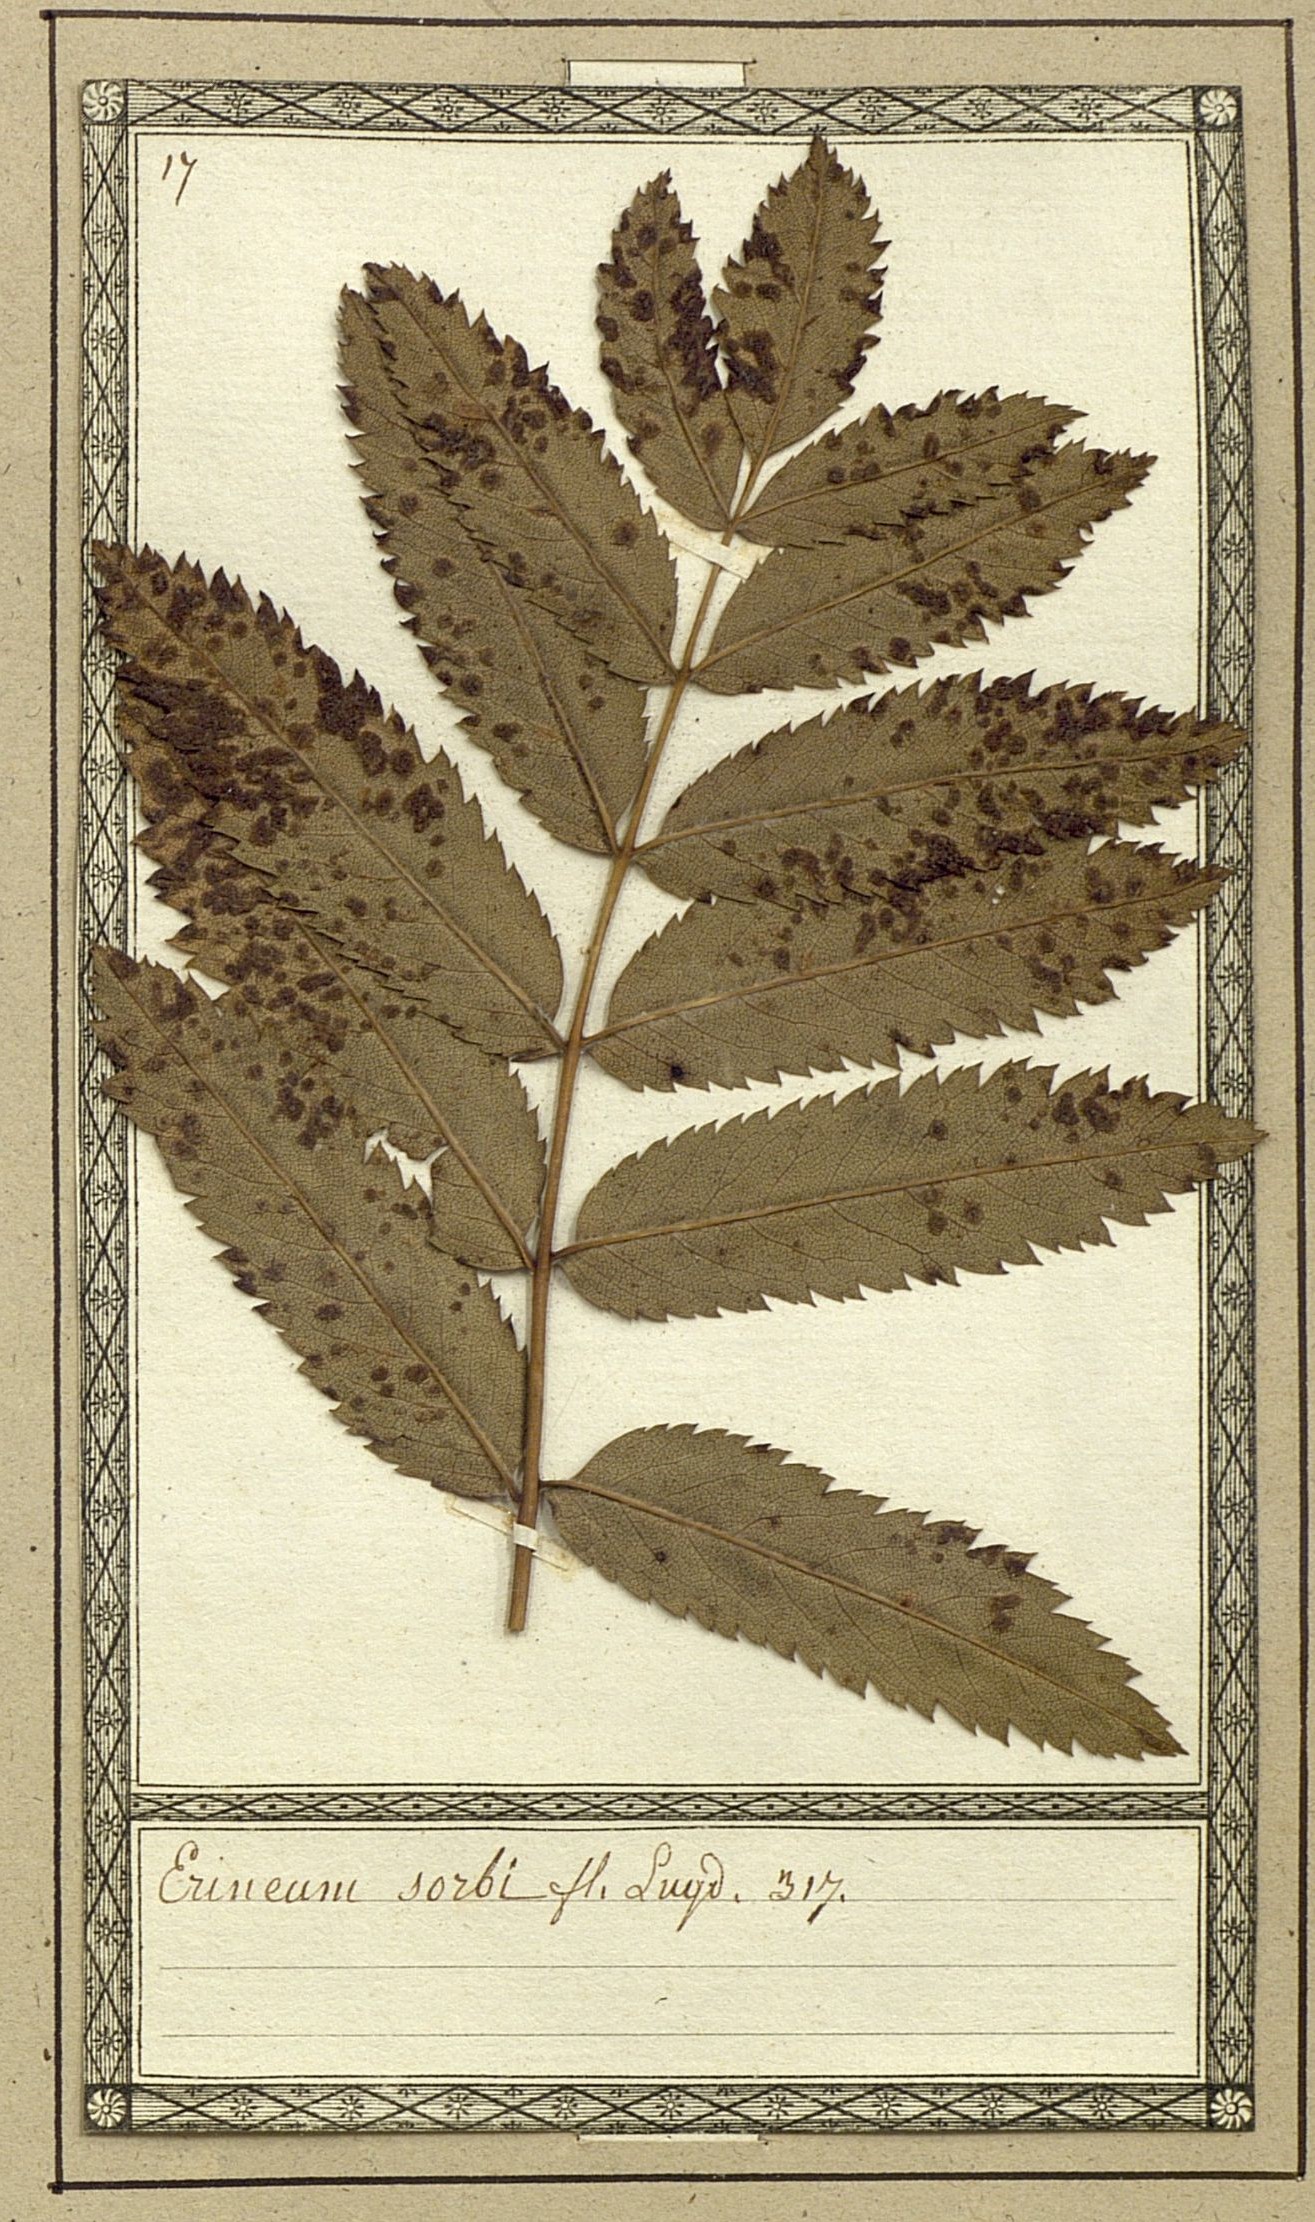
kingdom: Fungi
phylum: Basidiomycota
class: Pucciniomycetes
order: Pucciniales
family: Cronartiaceae
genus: Erineum
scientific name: Erineum sorbeum
